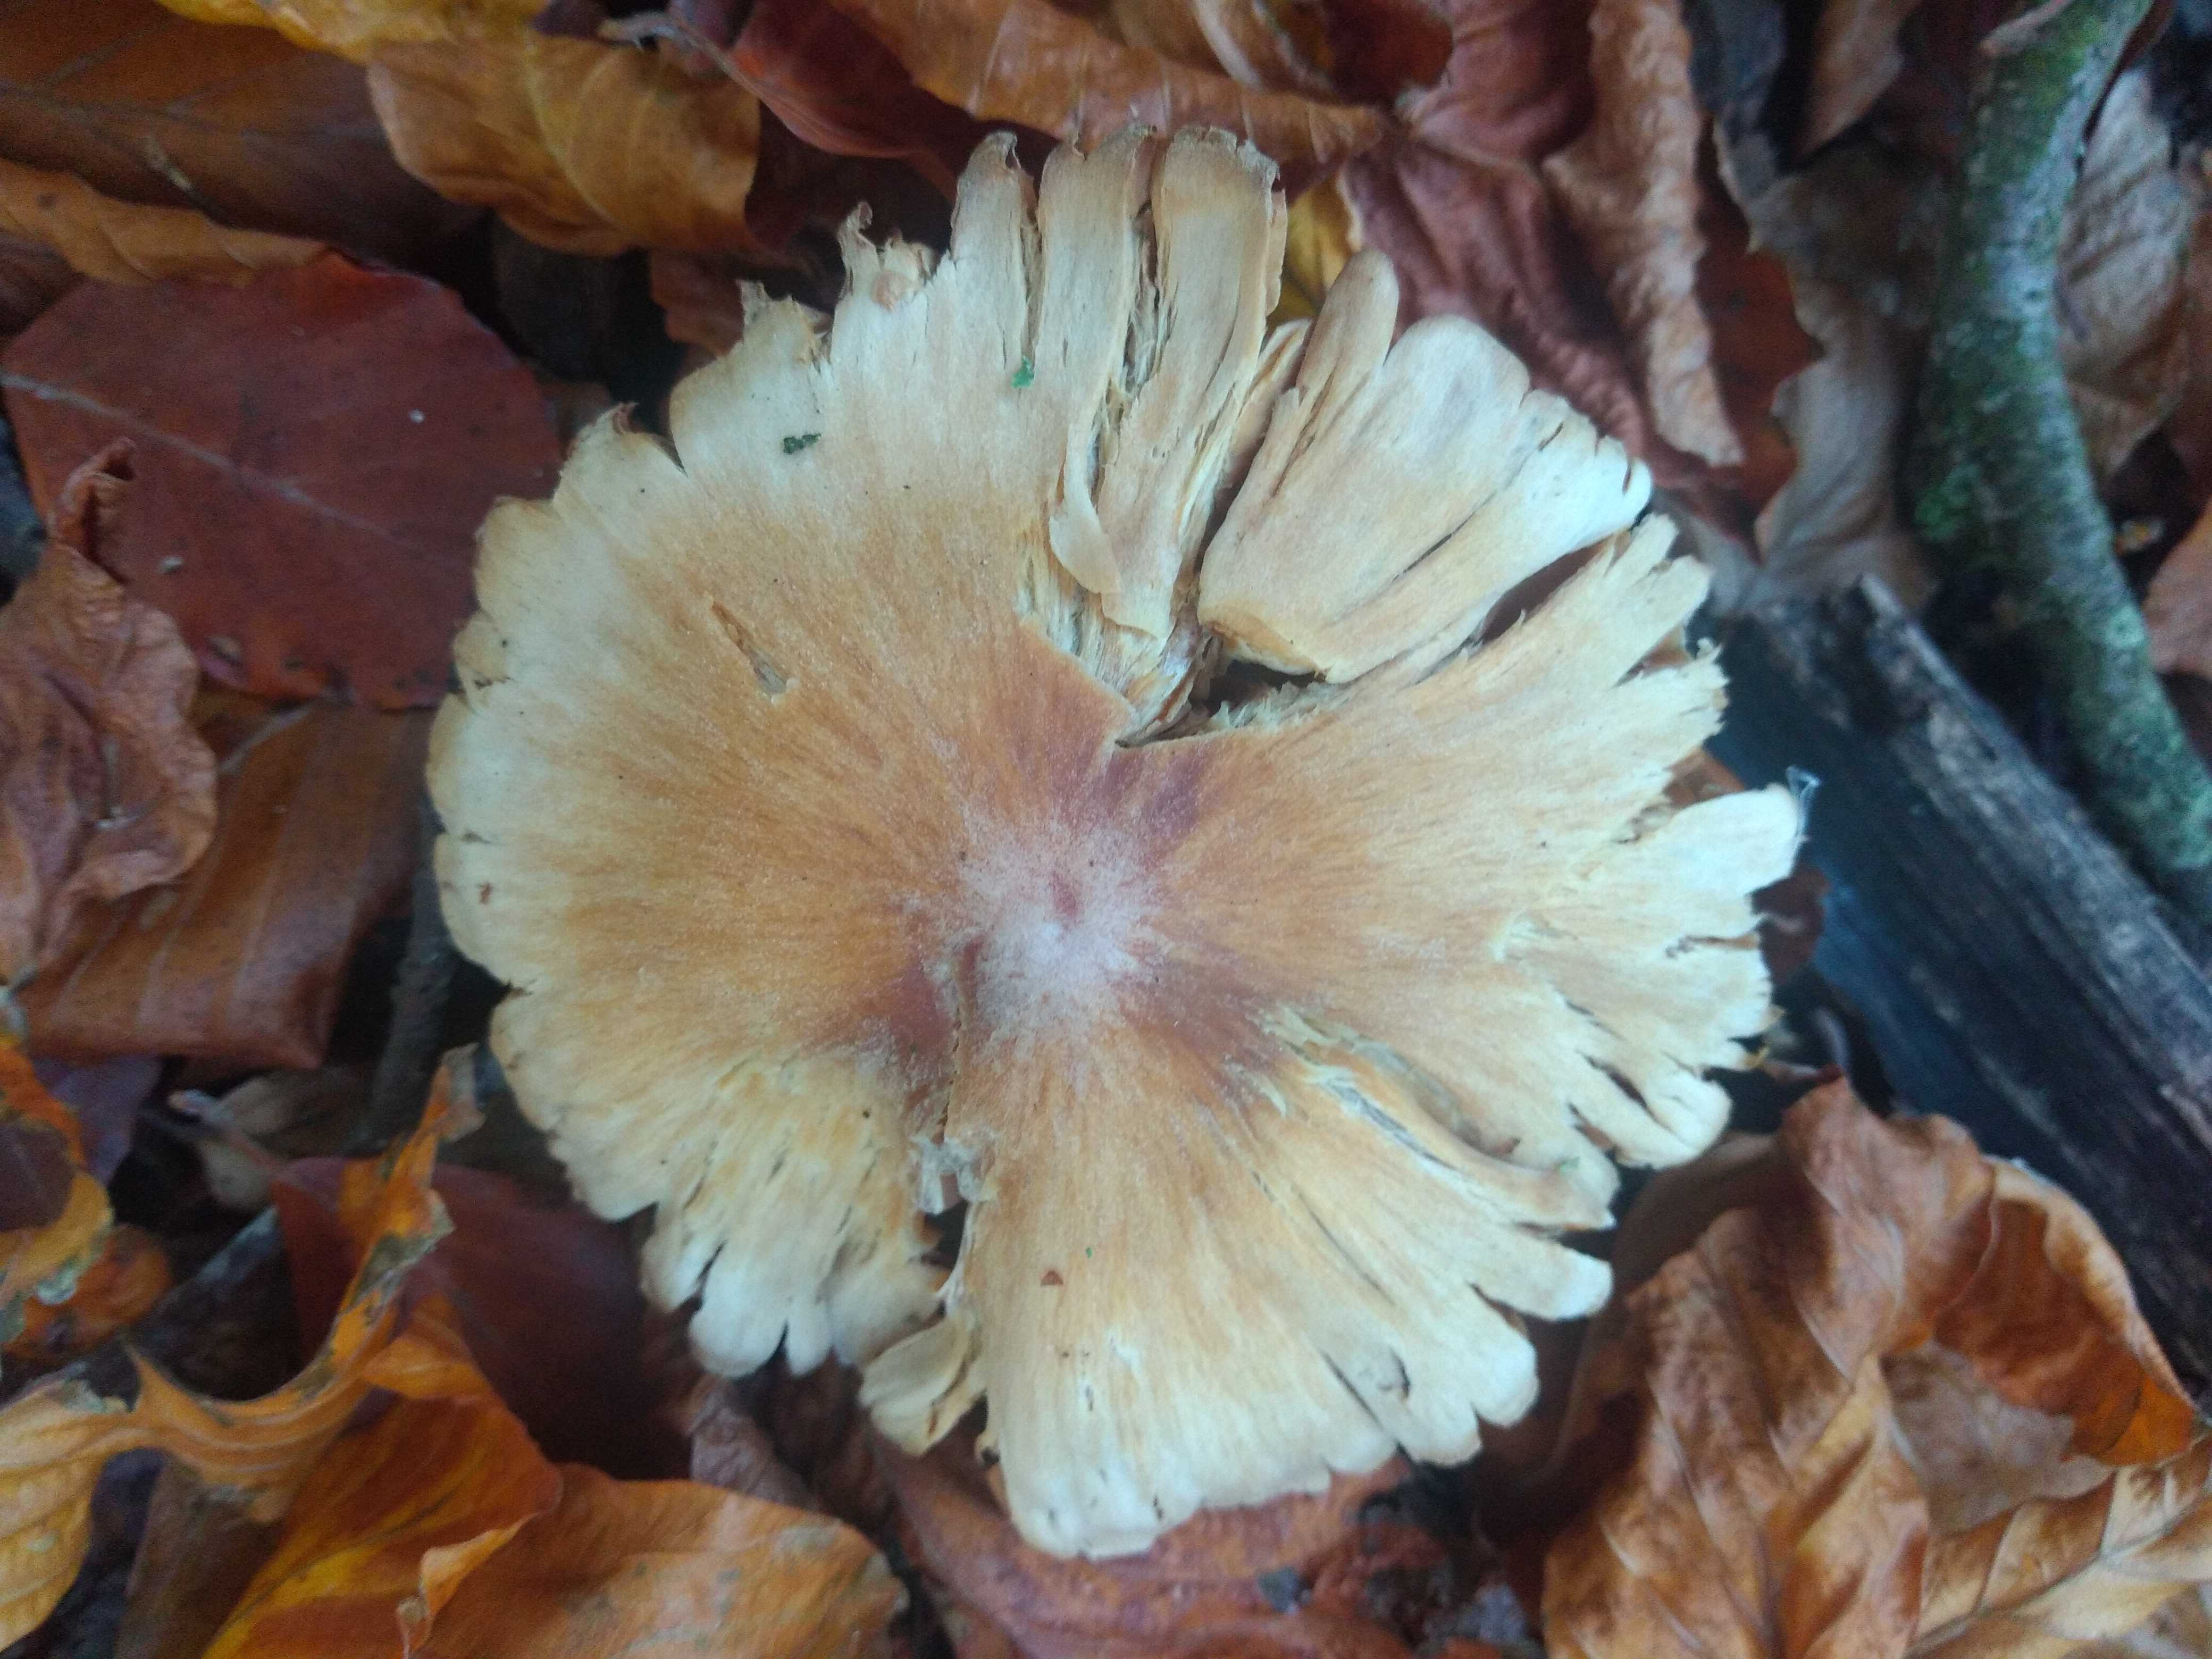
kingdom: Fungi
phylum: Basidiomycota
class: Agaricomycetes
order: Agaricales
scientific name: Agaricales
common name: champignonordenen
